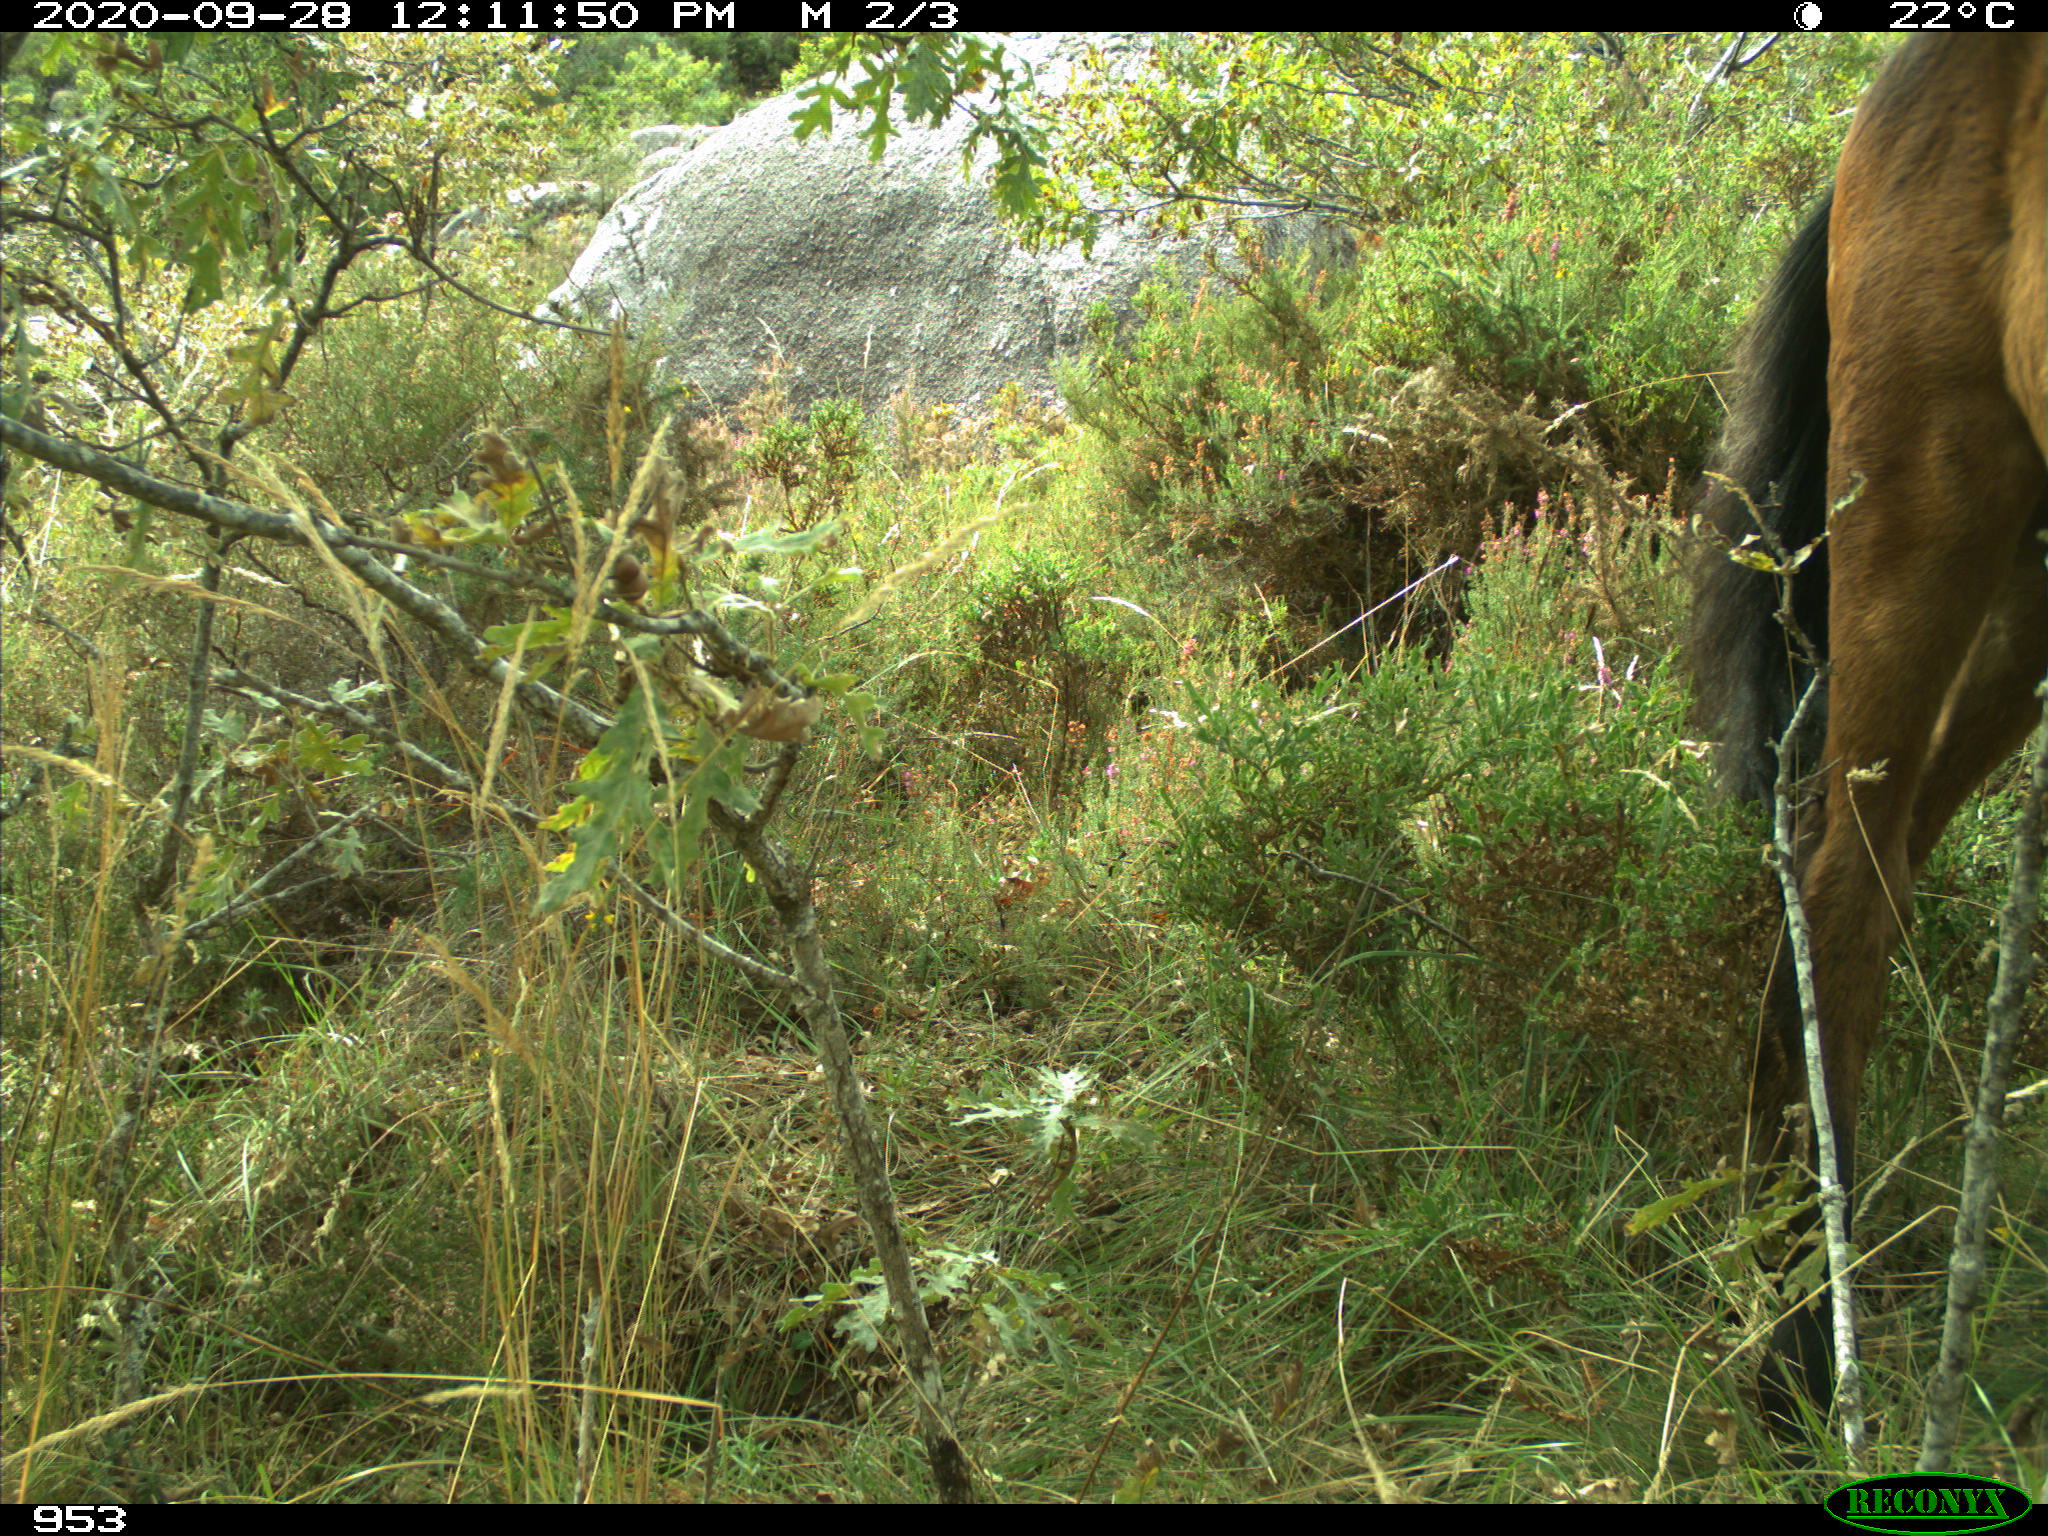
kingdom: Animalia
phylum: Chordata
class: Mammalia
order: Perissodactyla
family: Equidae
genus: Equus
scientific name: Equus caballus
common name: Horse
